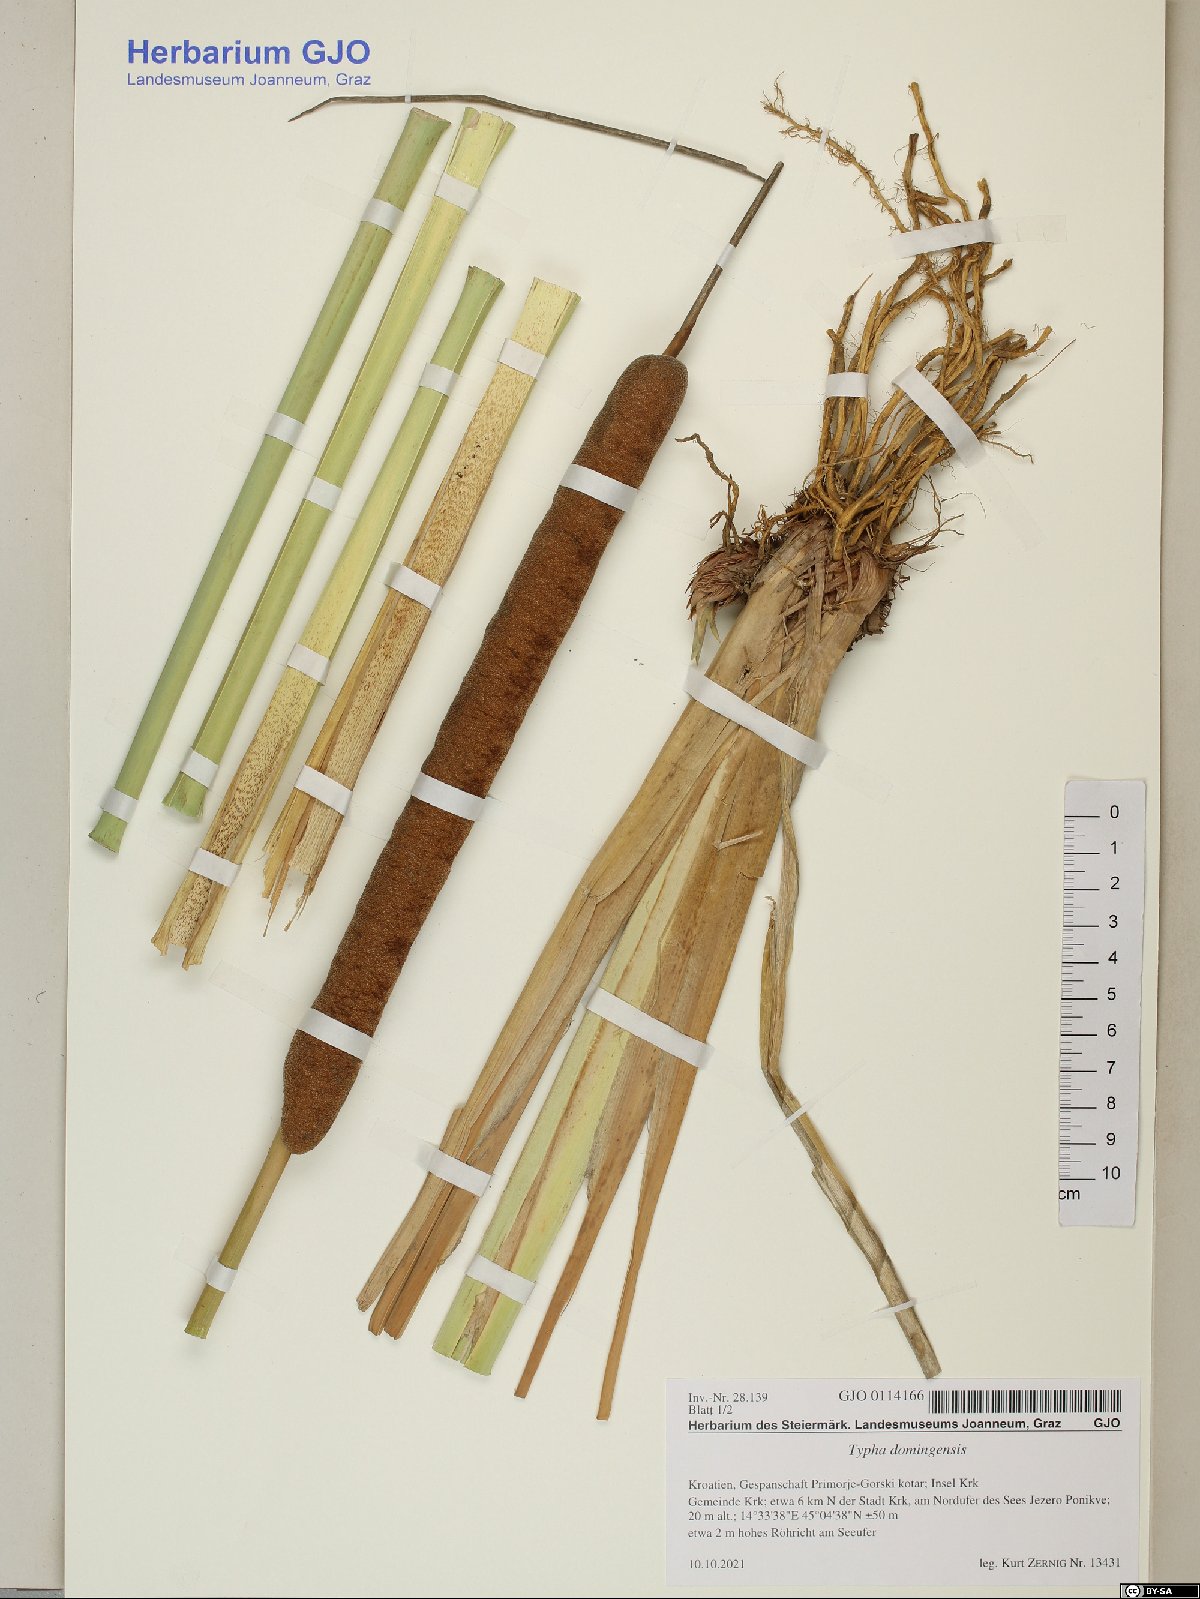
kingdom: Plantae
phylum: Tracheophyta
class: Liliopsida
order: Poales
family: Typhaceae
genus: Typha
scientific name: Typha domingensis
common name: Southern cattail
